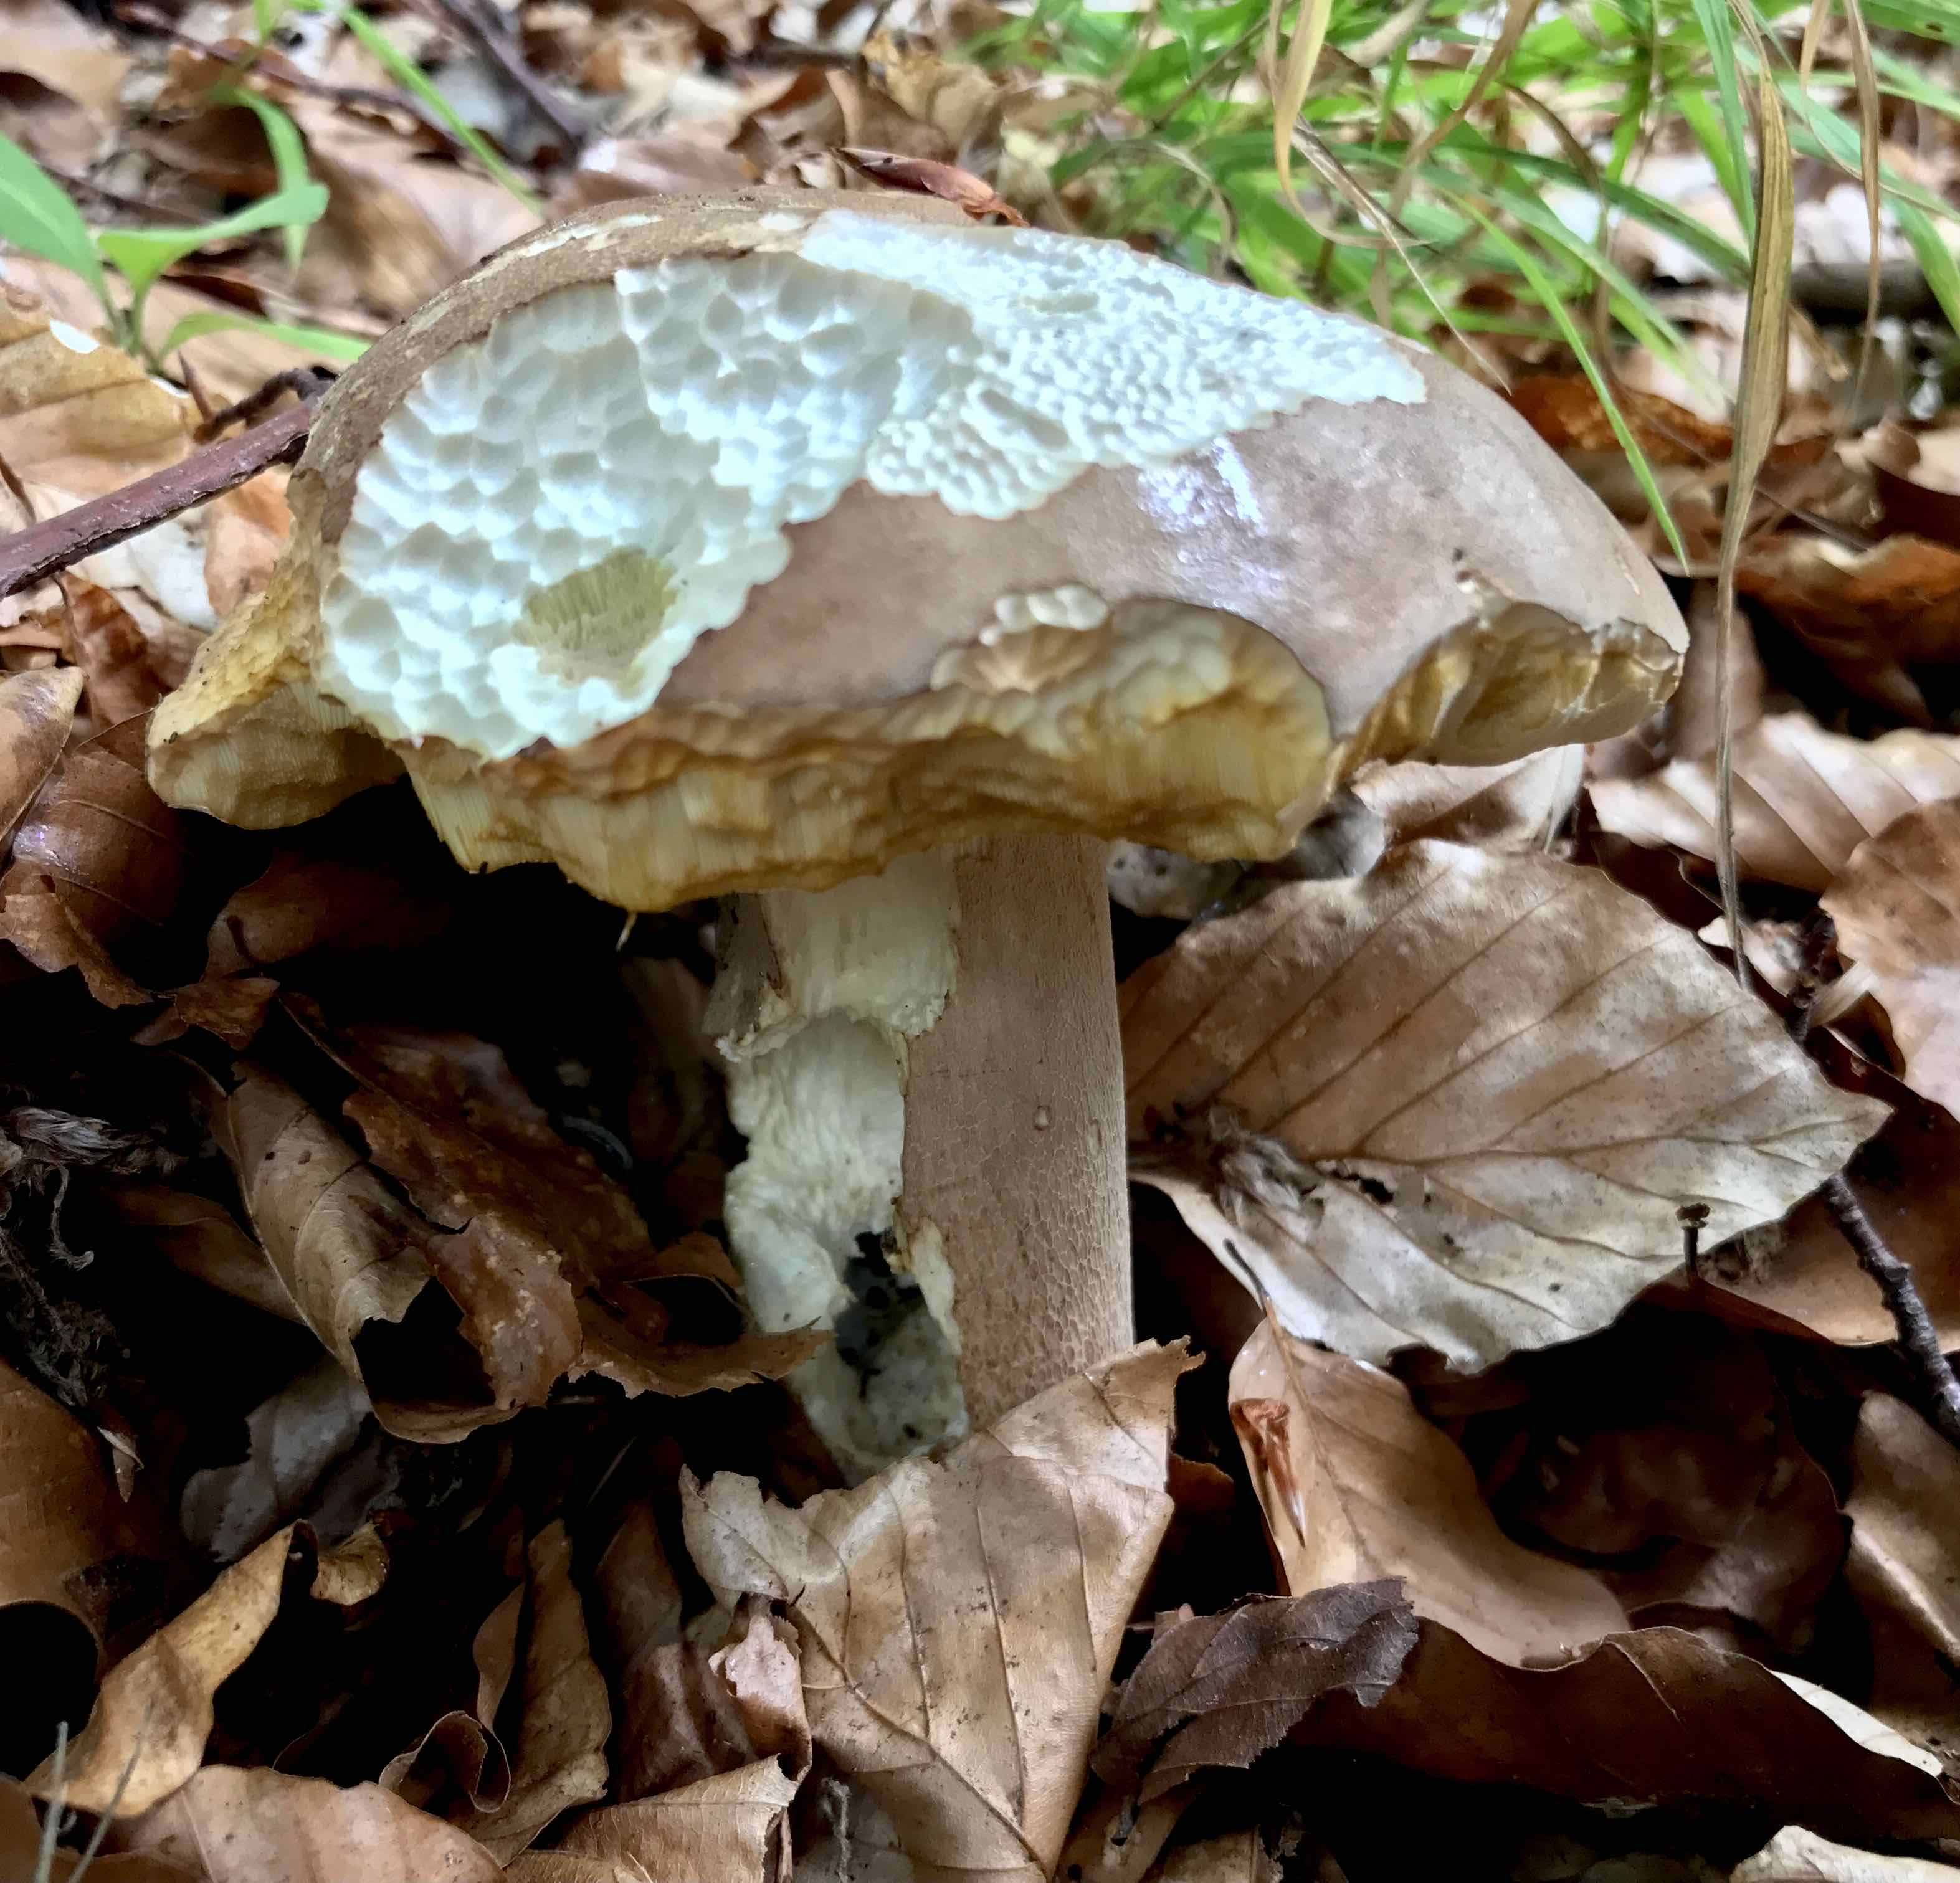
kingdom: Fungi
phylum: Basidiomycota
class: Agaricomycetes
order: Boletales
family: Boletaceae
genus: Boletus
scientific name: Boletus reticulatus
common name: sommer-rørhat
